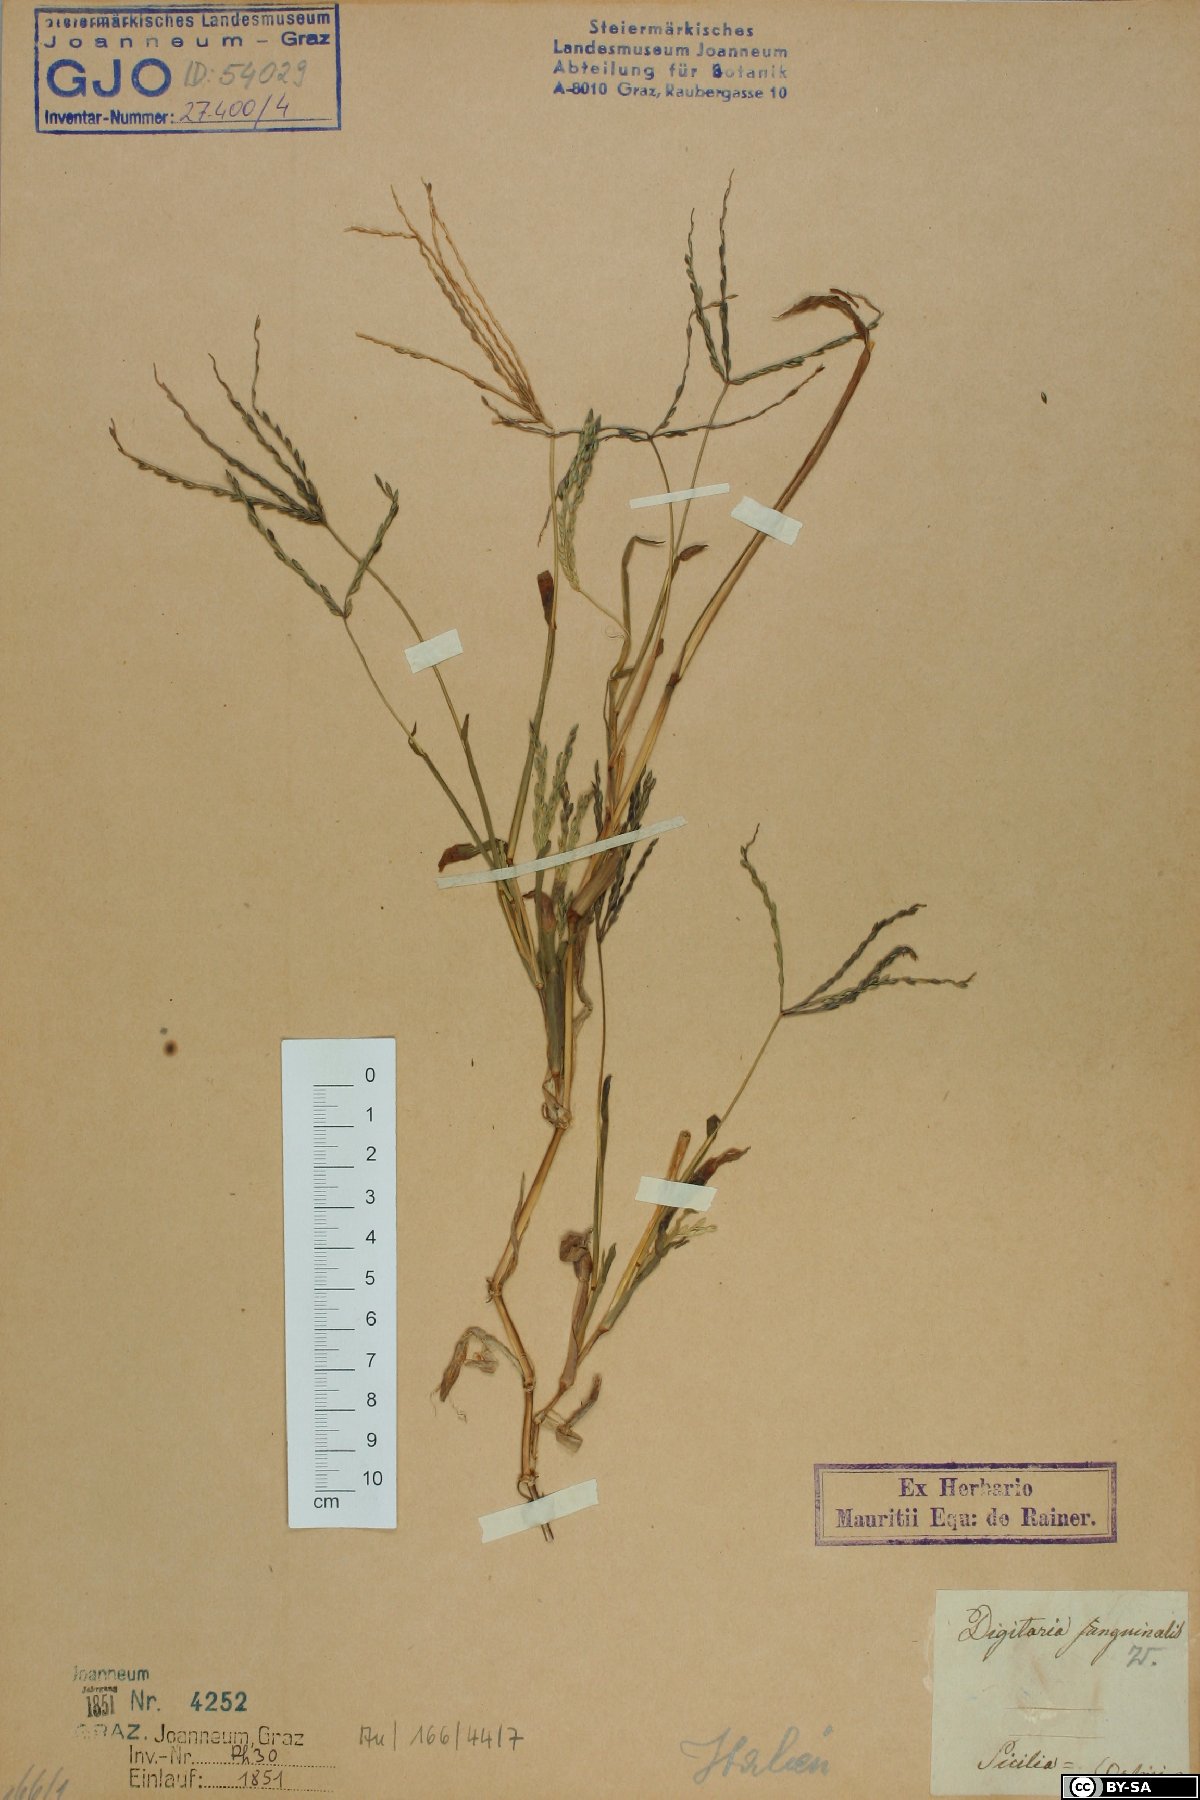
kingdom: Plantae
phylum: Tracheophyta
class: Liliopsida
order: Poales
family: Poaceae
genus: Digitaria
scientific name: Digitaria sanguinalis
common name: Hairy crabgrass
